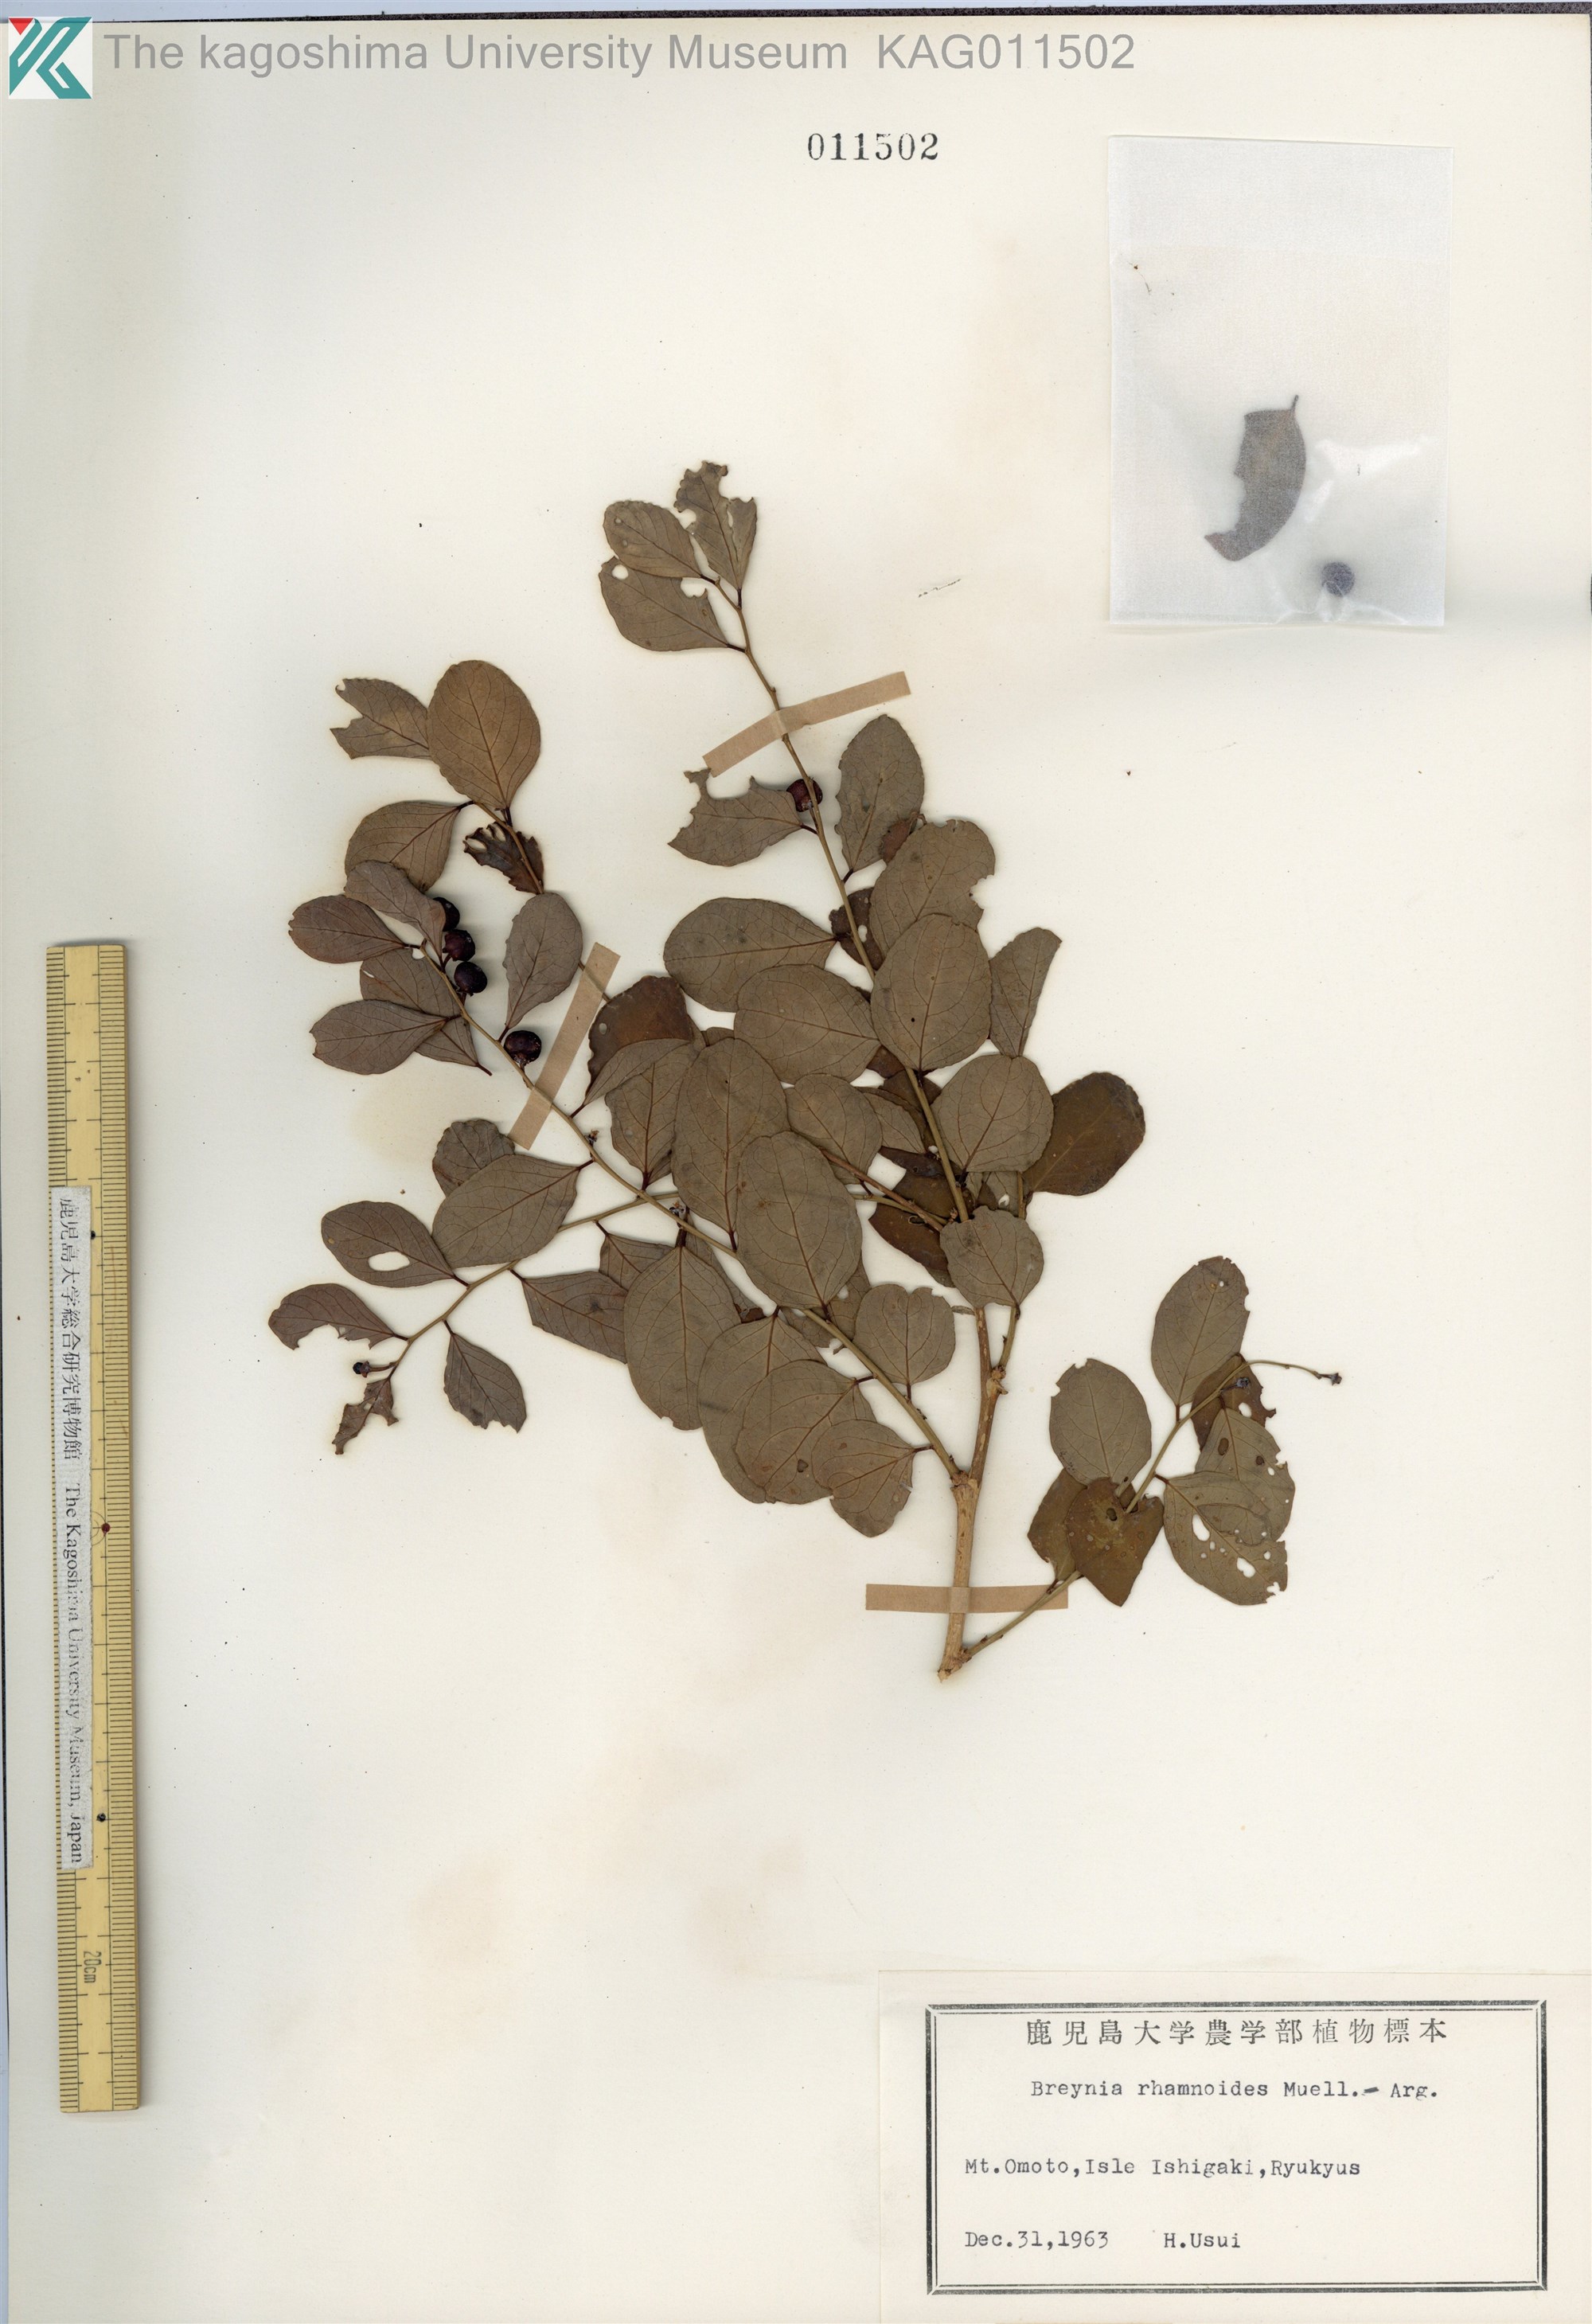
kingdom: Plantae
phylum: Tracheophyta
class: Magnoliopsida
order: Malpighiales
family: Phyllanthaceae
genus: Breynia
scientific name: Breynia vitis-idaea
